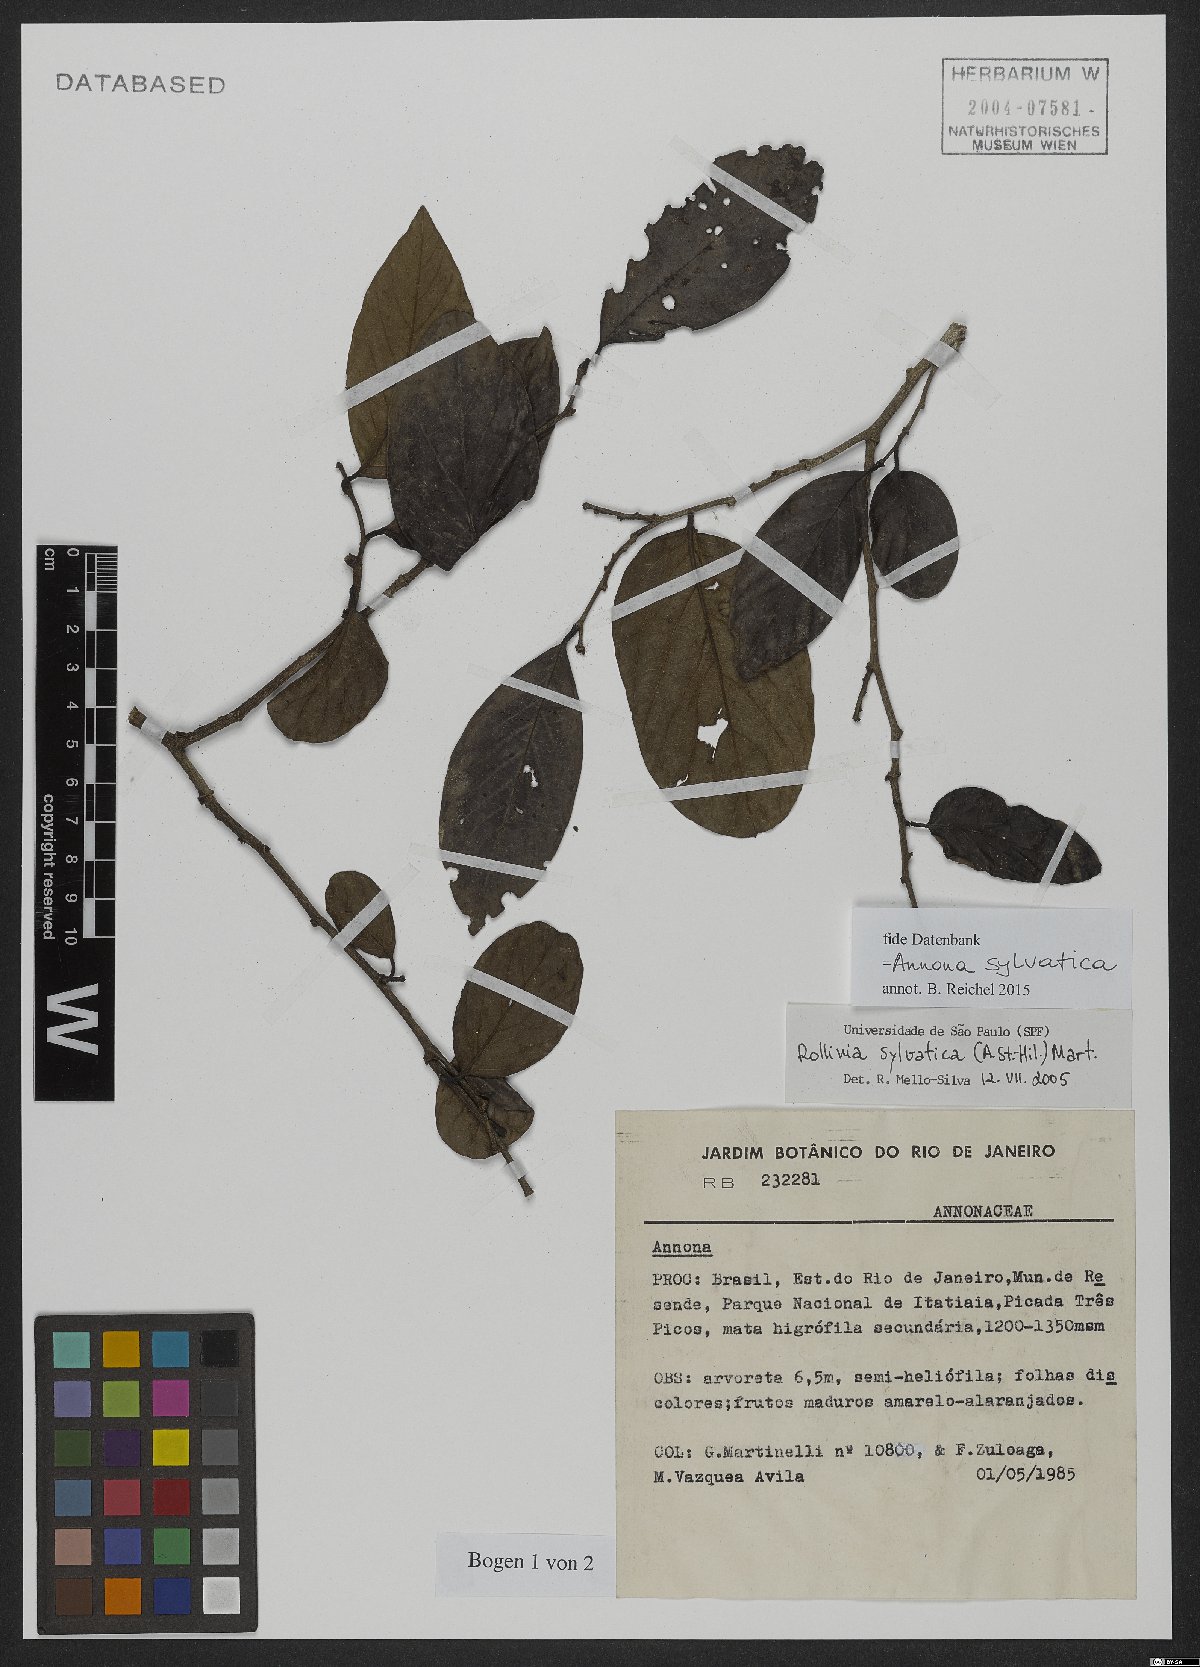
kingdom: Plantae
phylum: Tracheophyta
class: Magnoliopsida
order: Magnoliales
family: Annonaceae
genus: Annona
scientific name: Annona sylvatica
